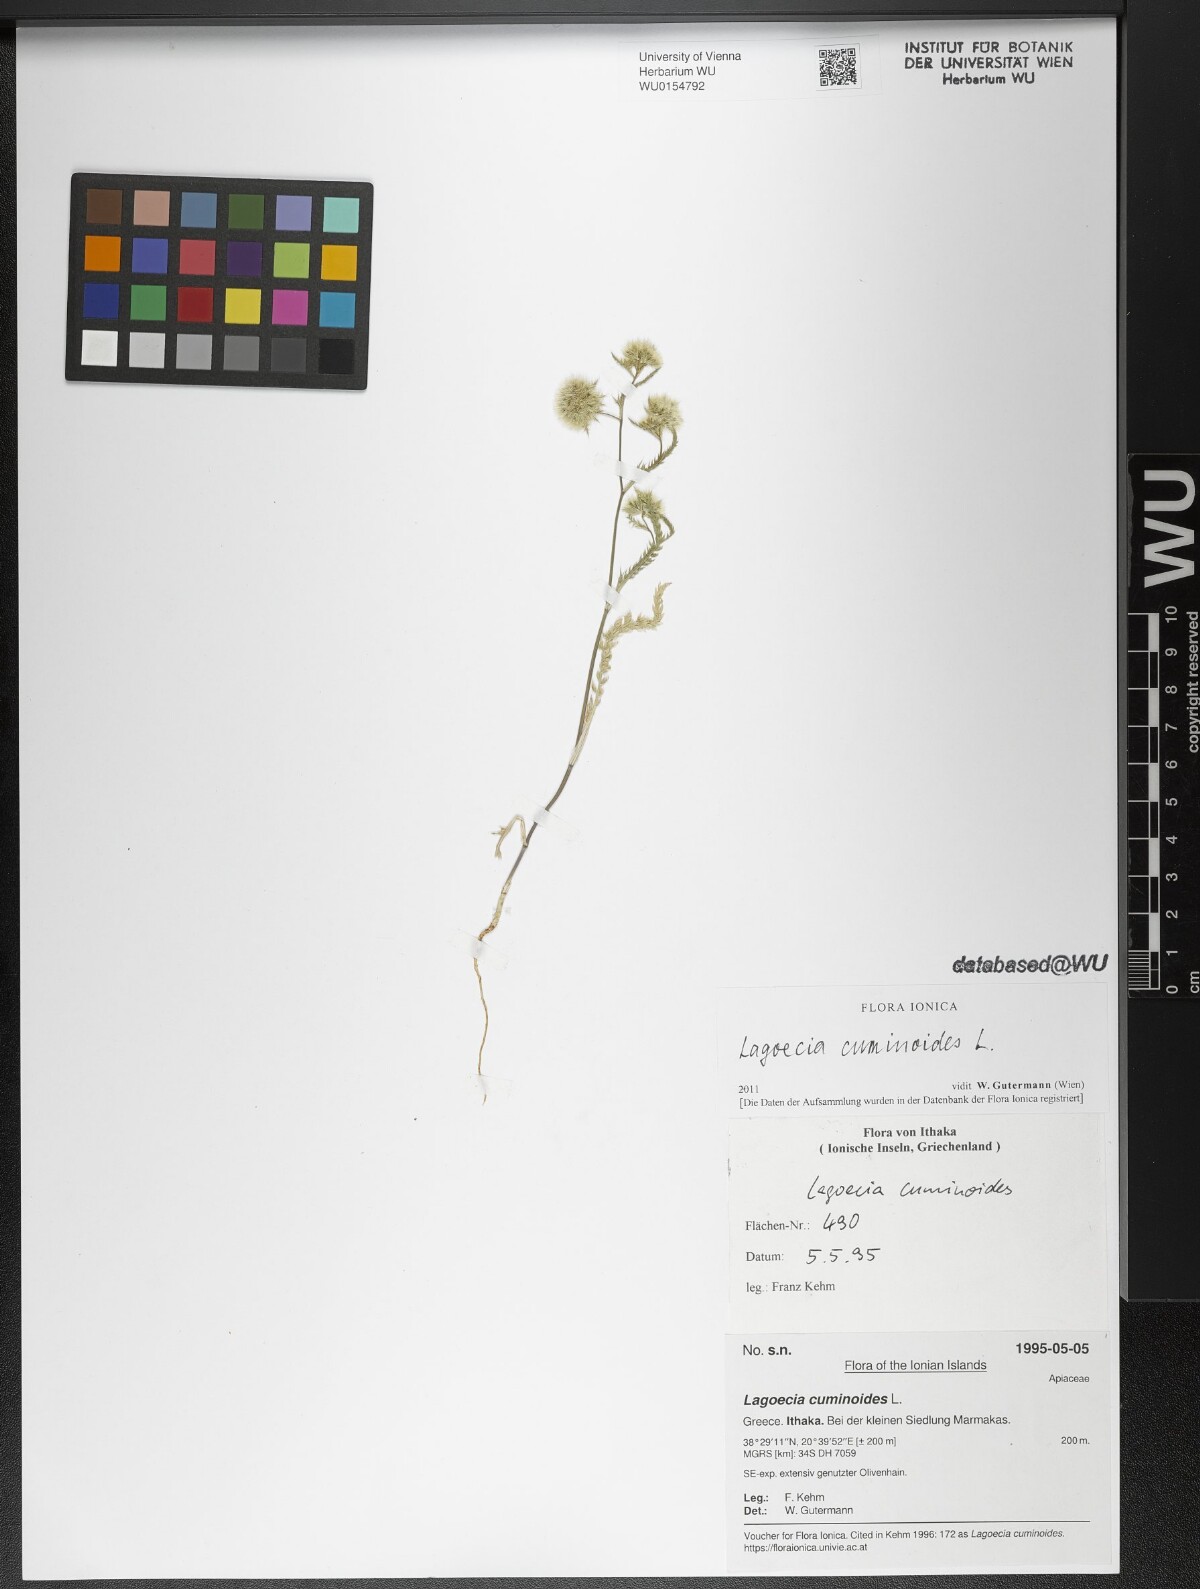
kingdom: Plantae
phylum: Tracheophyta
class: Magnoliopsida
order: Apiales
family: Apiaceae
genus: Lagoecia
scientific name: Lagoecia cuminoides
